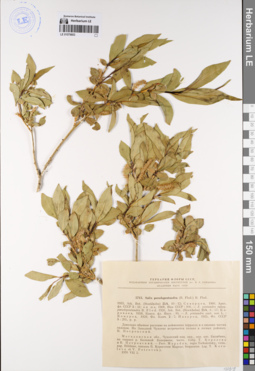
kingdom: Plantae
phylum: Tracheophyta
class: Magnoliopsida
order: Malpighiales
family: Salicaceae
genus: Salix
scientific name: Salix pseudopentandra
